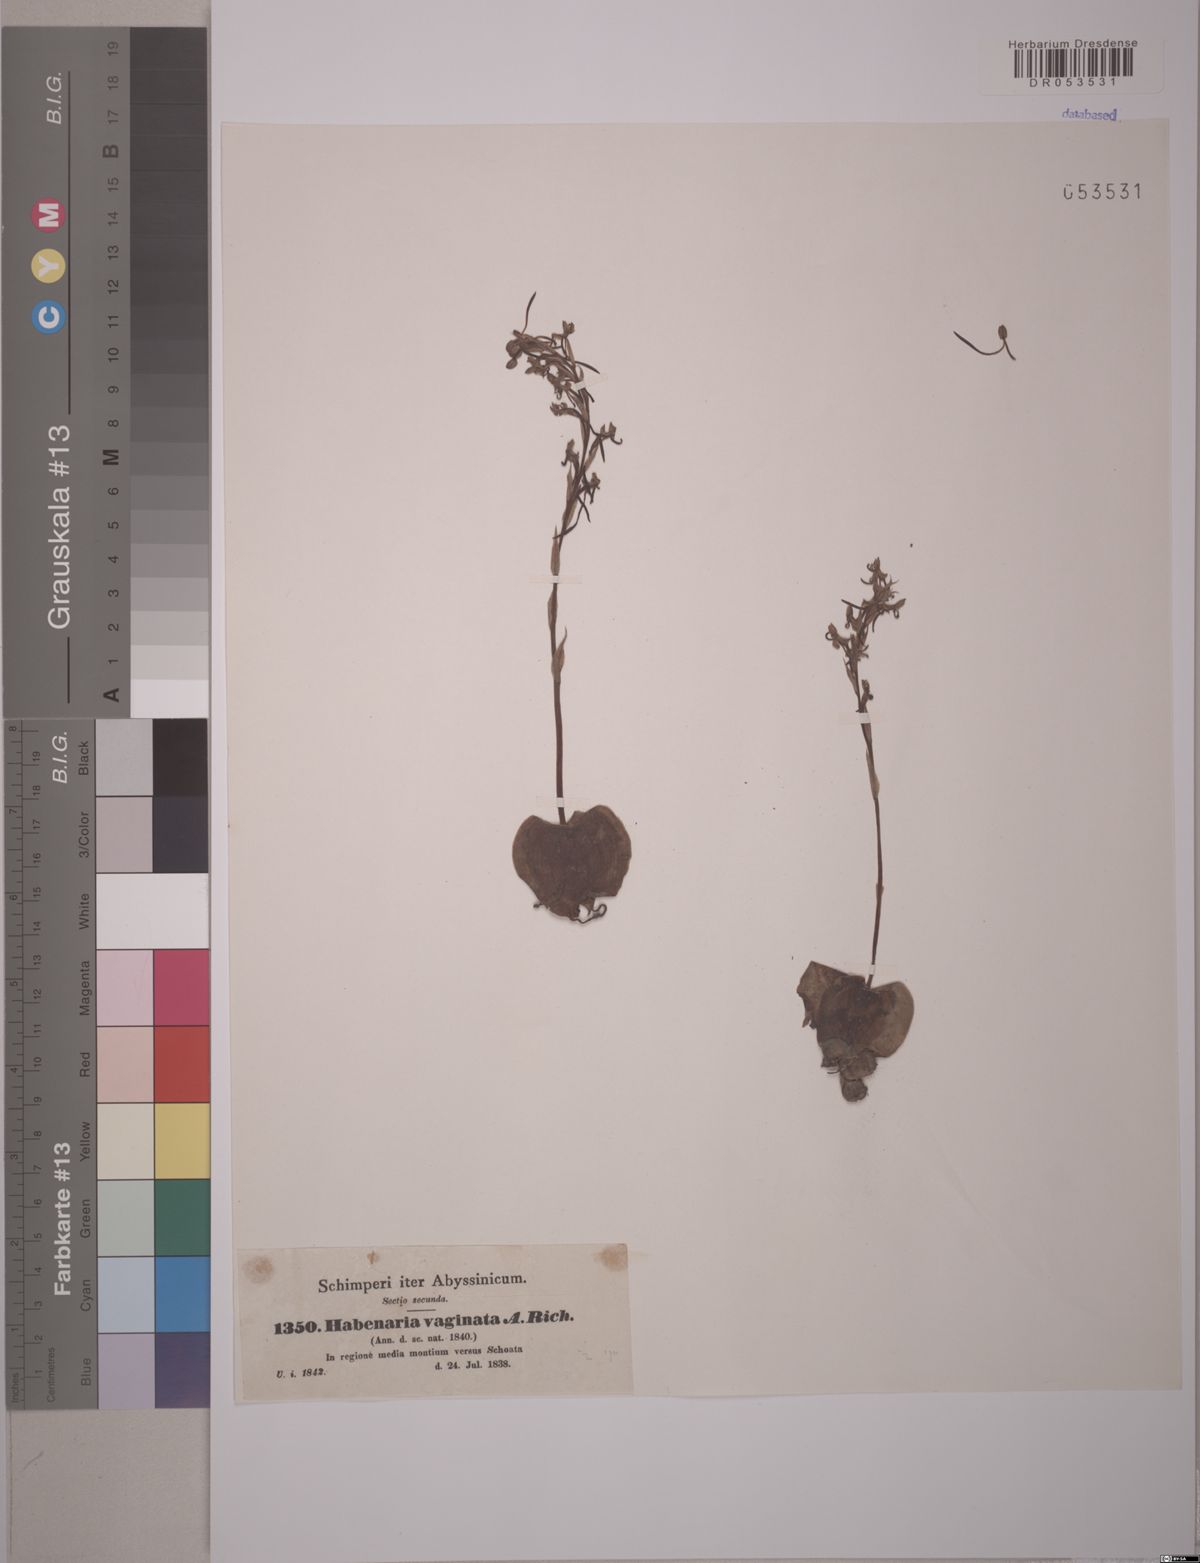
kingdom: Plantae
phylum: Tracheophyta
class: Liliopsida
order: Asparagales
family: Orchidaceae
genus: Habenaria
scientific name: Habenaria vaginata
